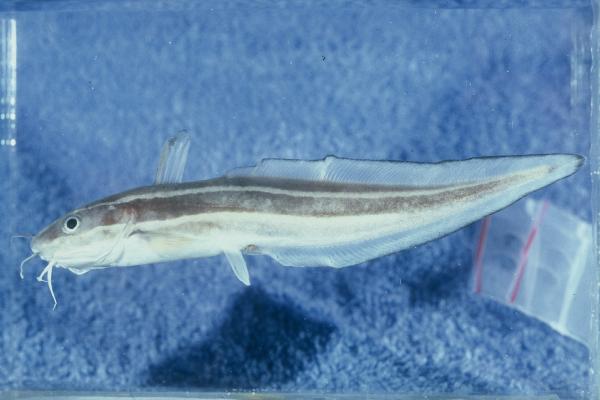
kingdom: Animalia
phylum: Chordata
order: Siluriformes
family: Plotosidae
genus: Plotosus
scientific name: Plotosus lineatus
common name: Striped eel catfish
